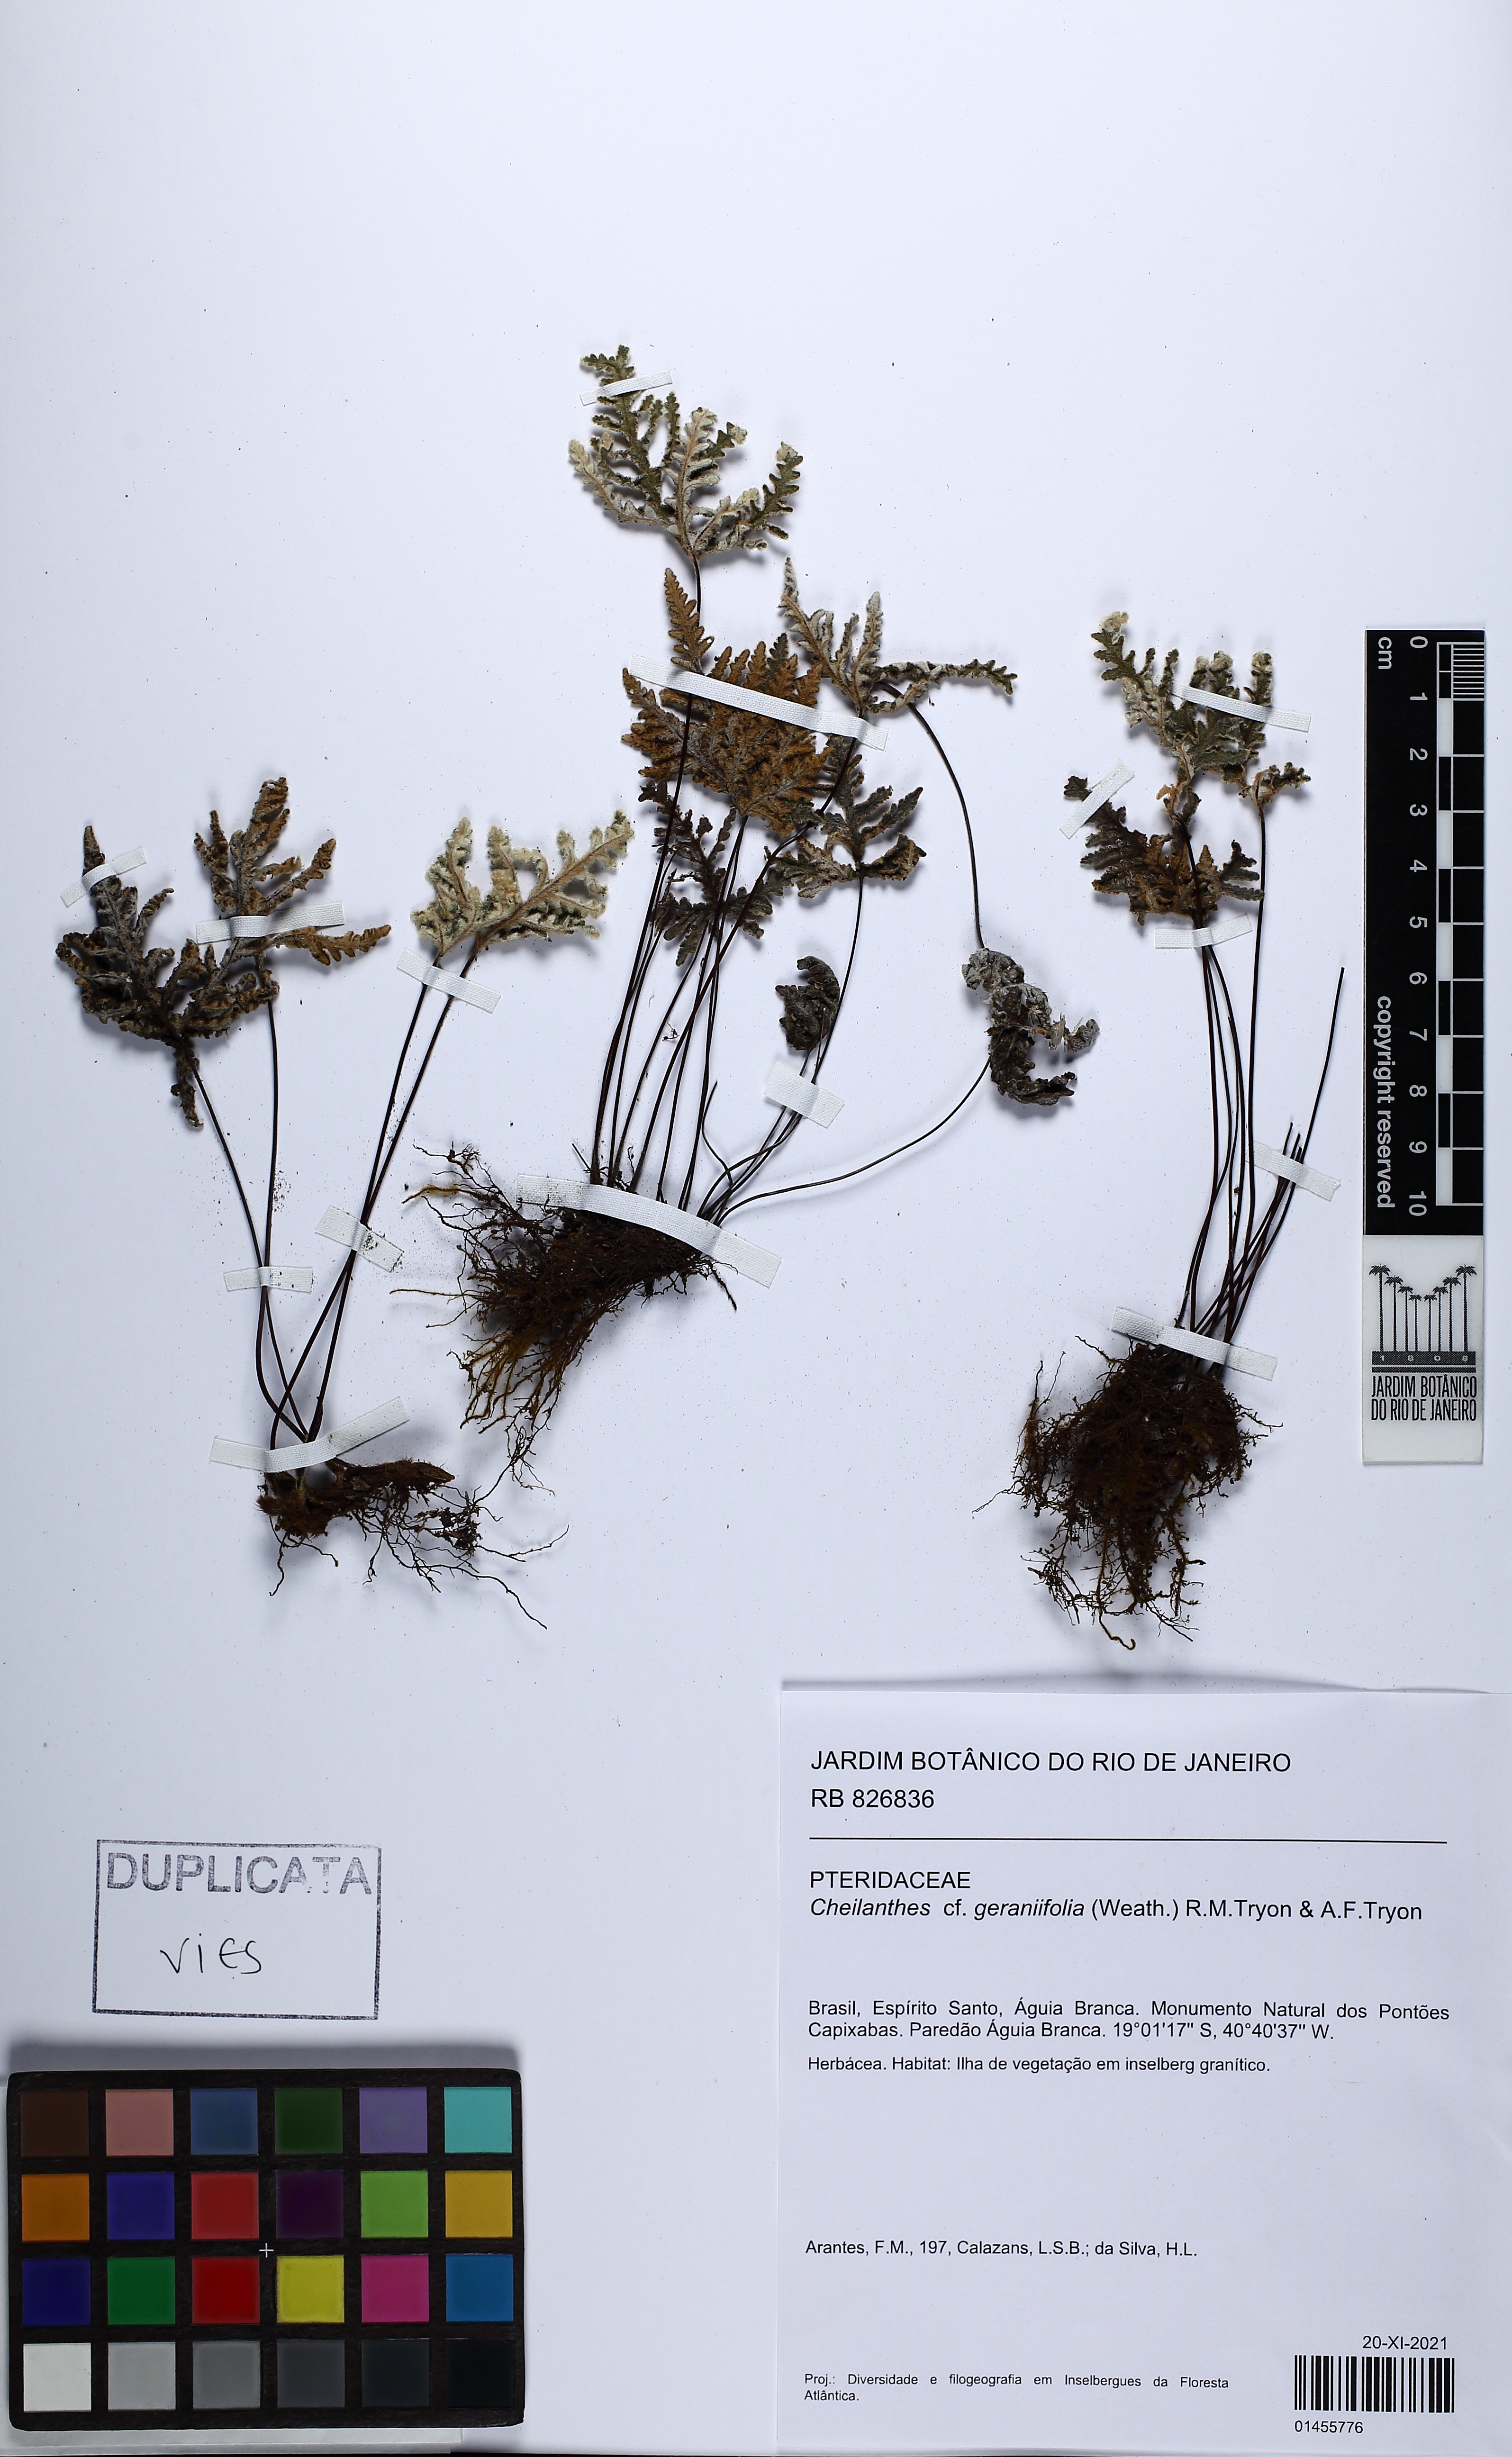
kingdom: Plantae
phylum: Tracheophyta
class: Polypodiopsida
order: Polypodiales
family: Pteridaceae
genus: Mineirella
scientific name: Mineirella geraniifolia
